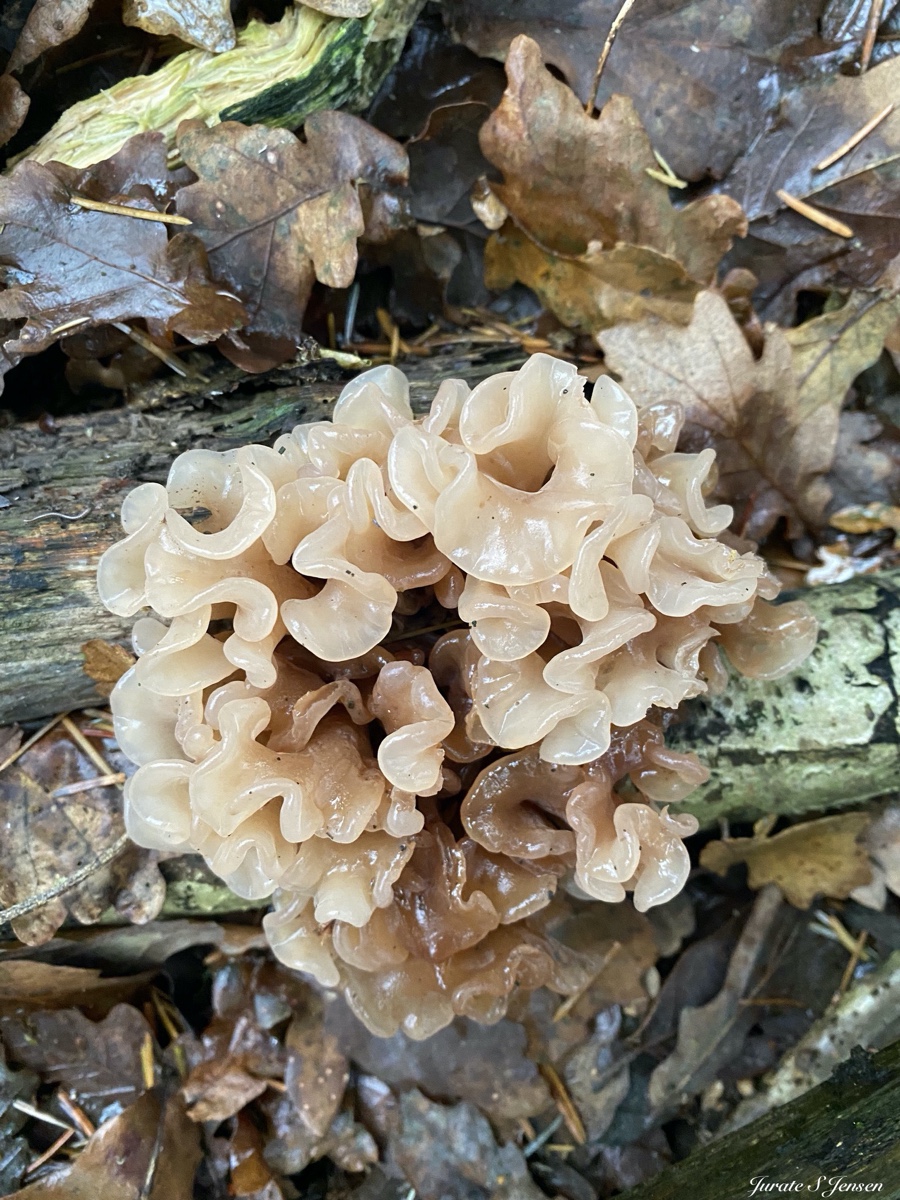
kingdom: Fungi
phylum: Basidiomycota
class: Tremellomycetes
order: Tremellales
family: Tremellaceae
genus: Phaeotremella
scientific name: Phaeotremella frondosa
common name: kæmpe-bævresvamp
